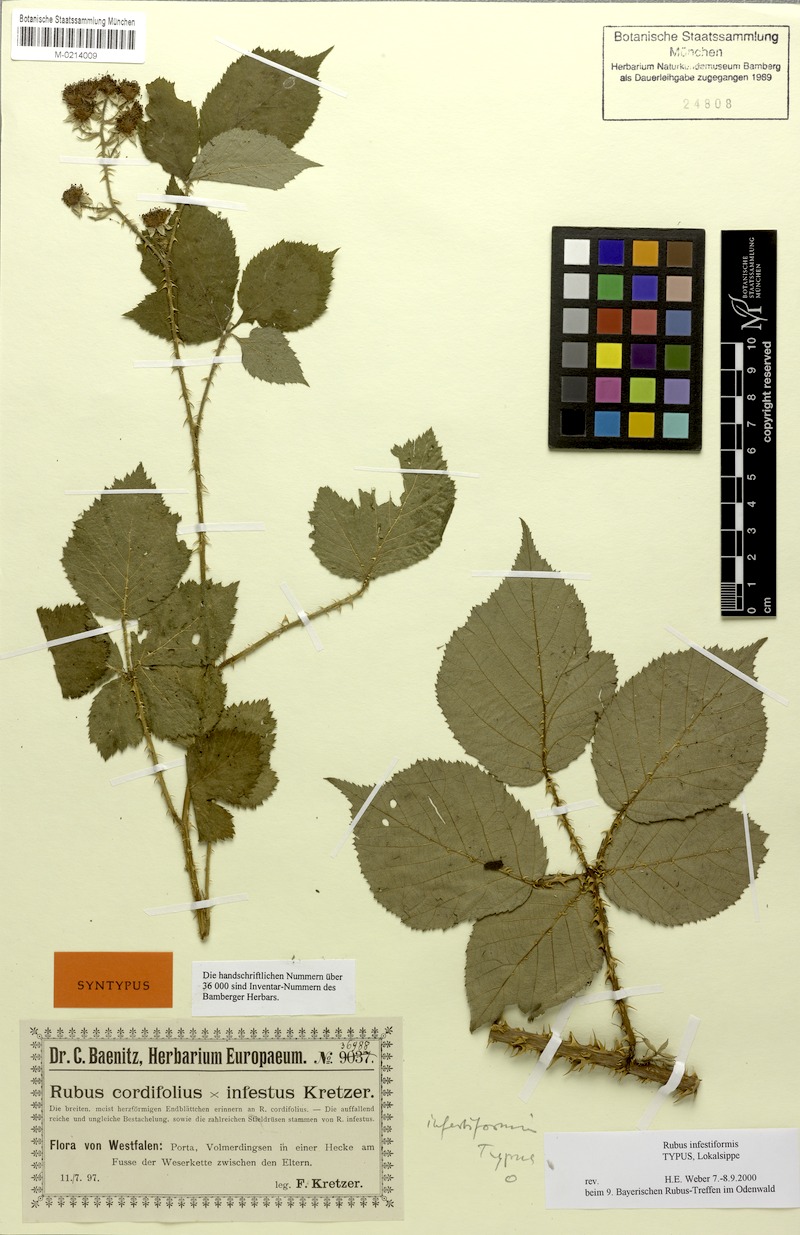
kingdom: Plantae
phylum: Tracheophyta
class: Magnoliopsida
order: Rosales
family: Rosaceae
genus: Rubus
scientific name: Rubus hebecarpos
